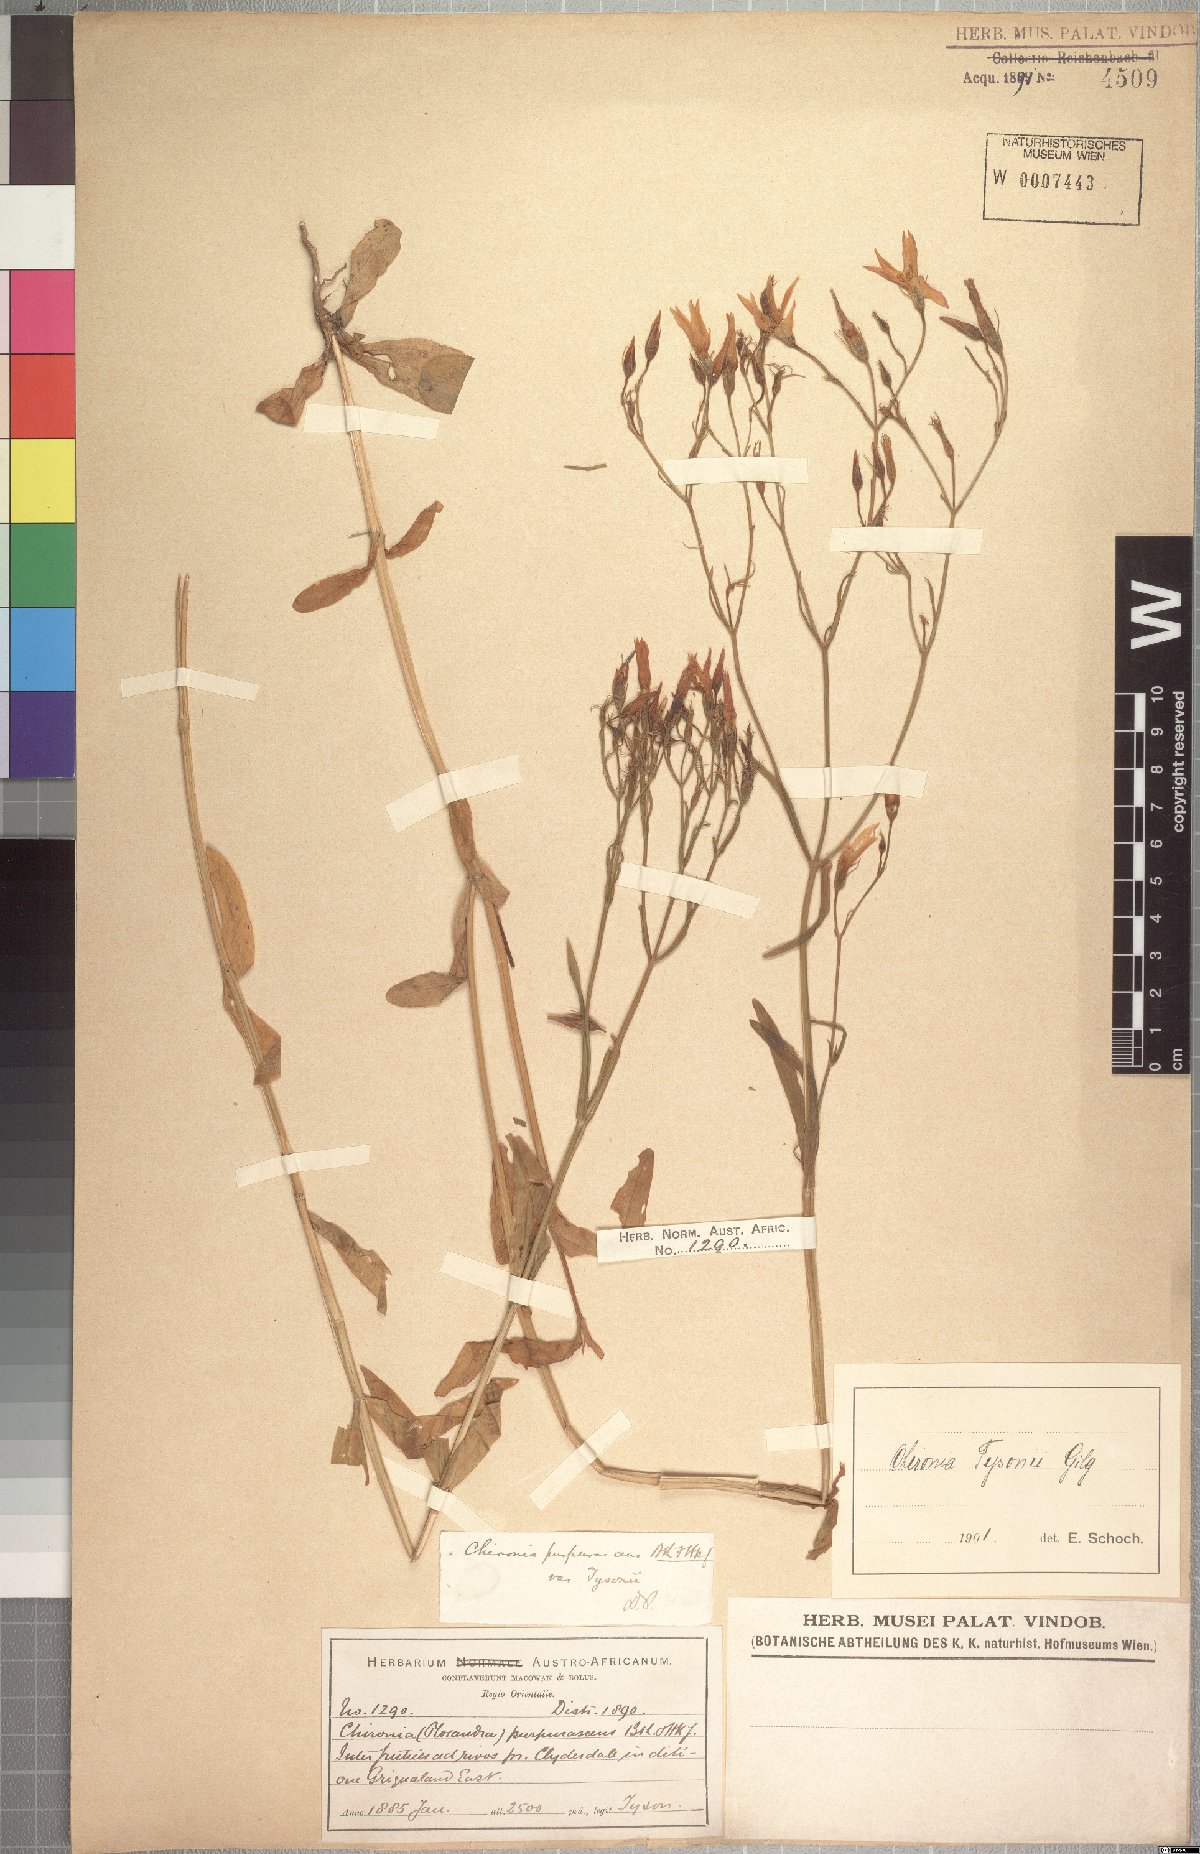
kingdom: Plantae
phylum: Tracheophyta
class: Magnoliopsida
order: Gentianales
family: Gentianaceae
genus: Chironia
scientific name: Chironia purpurascens
